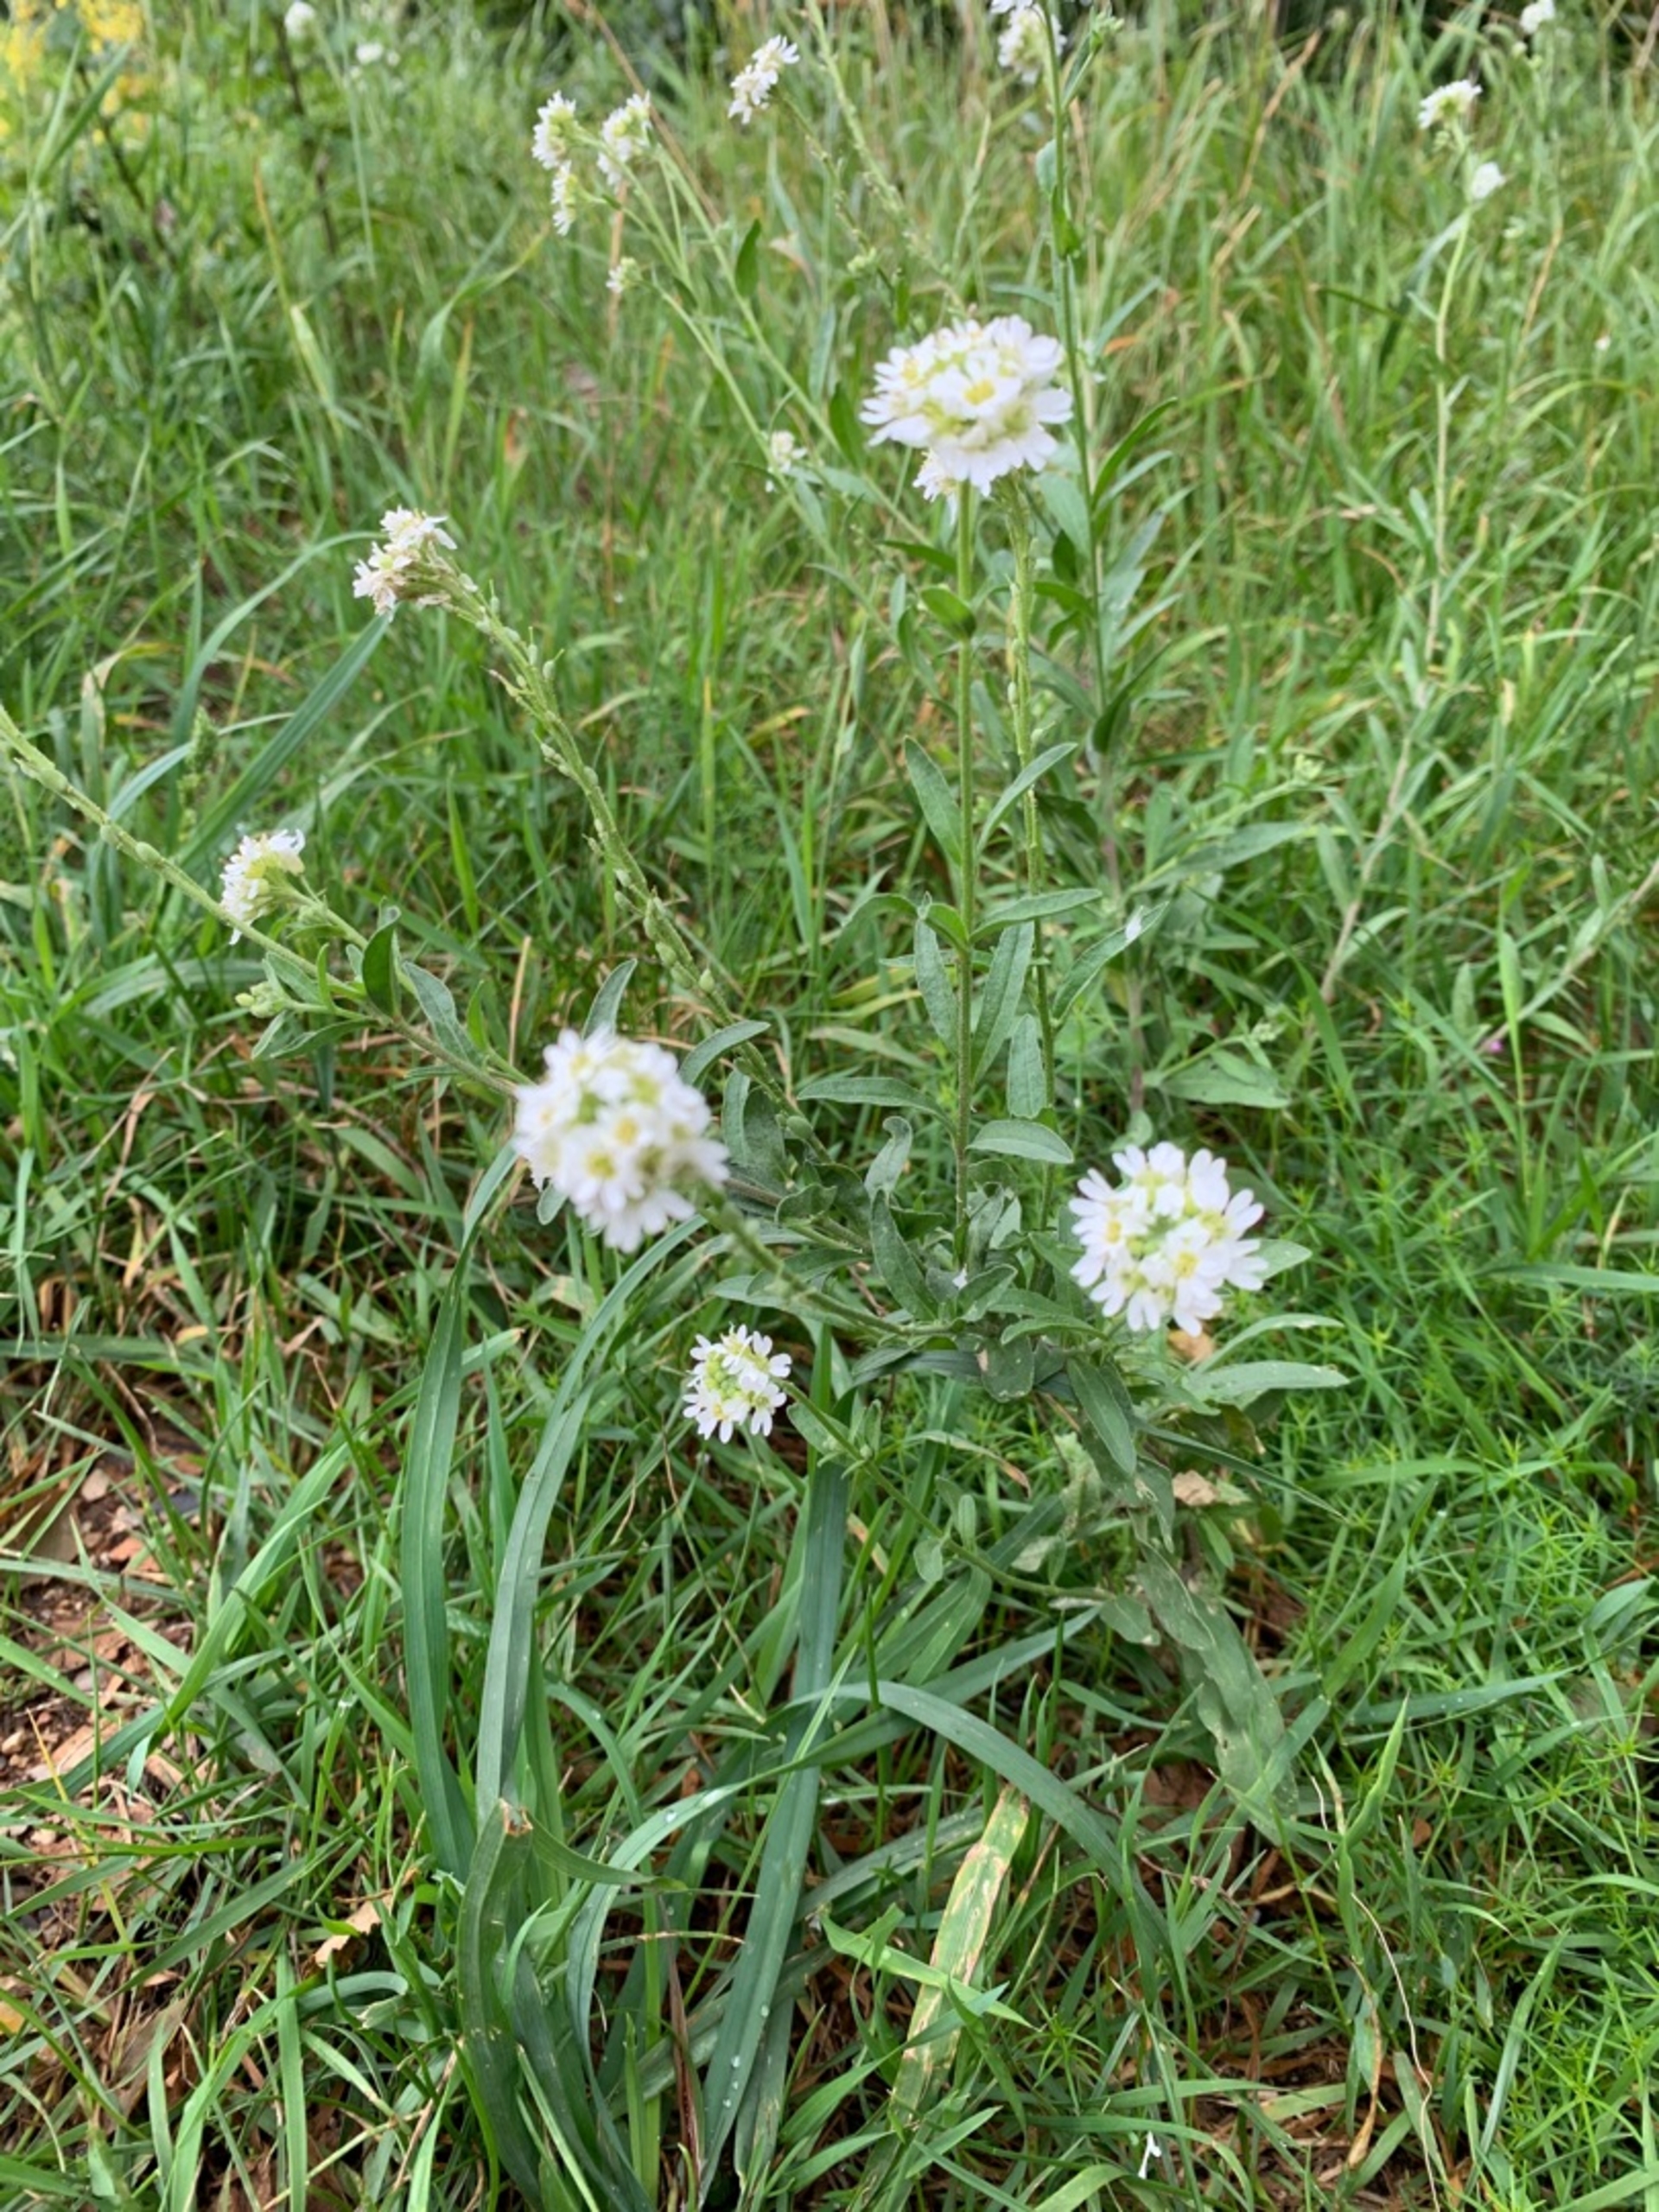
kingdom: Plantae
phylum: Tracheophyta
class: Magnoliopsida
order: Brassicales
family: Brassicaceae
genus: Berteroa
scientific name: Berteroa incana
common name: Kløvplade
